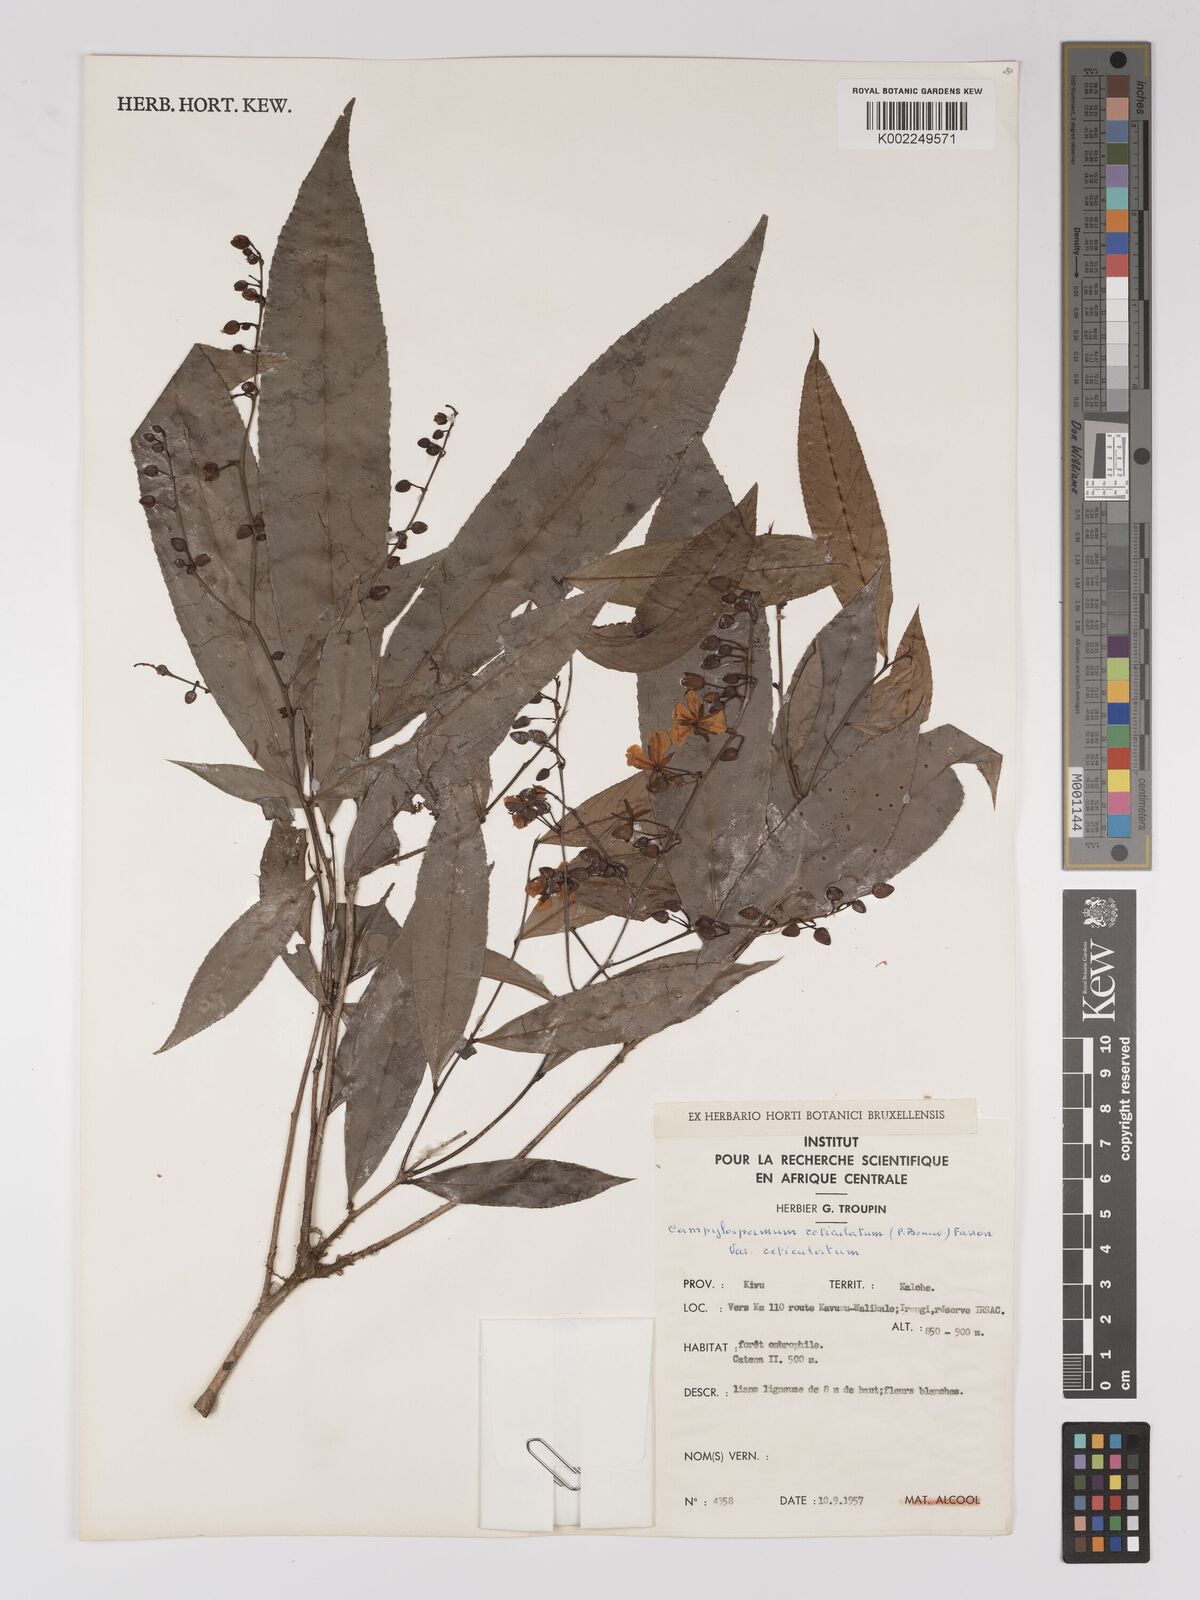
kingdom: Plantae
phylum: Tracheophyta
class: Magnoliopsida
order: Malpighiales
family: Ochnaceae
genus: Campylospermum
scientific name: Campylospermum reticulatum
